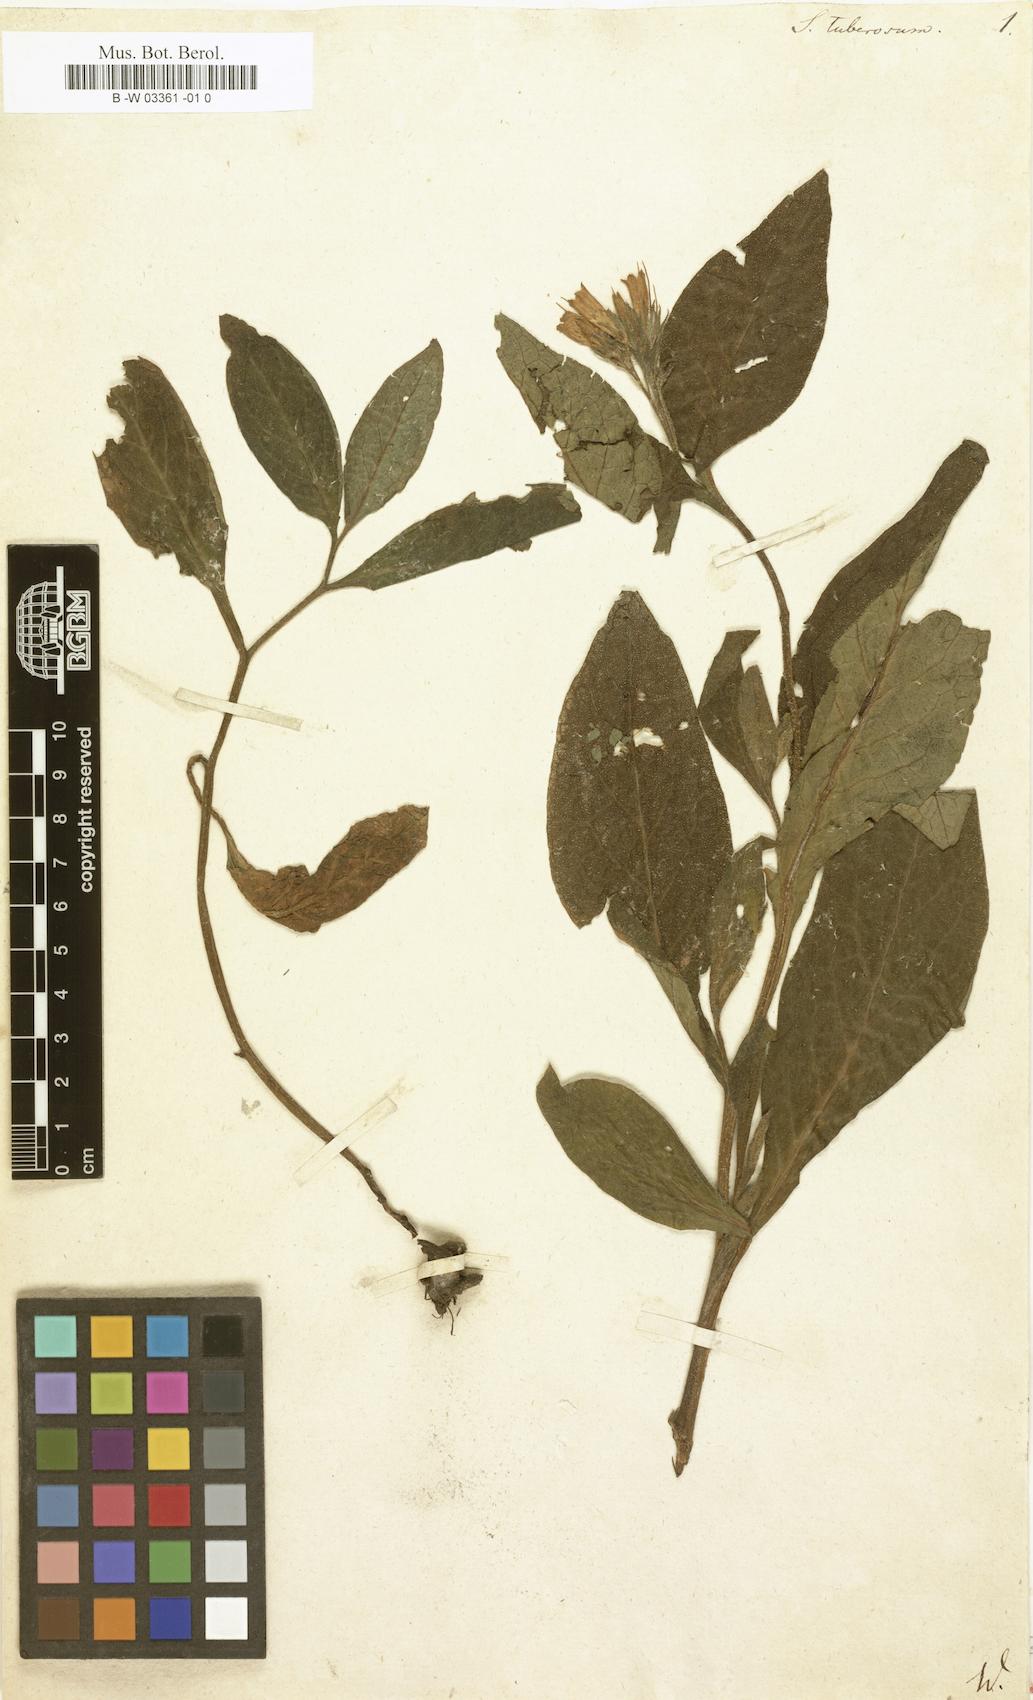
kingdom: Plantae
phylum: Tracheophyta
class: Magnoliopsida
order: Boraginales
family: Boraginaceae
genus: Symphytum
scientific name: Symphytum tuberosum
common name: Tuberous comfrey
